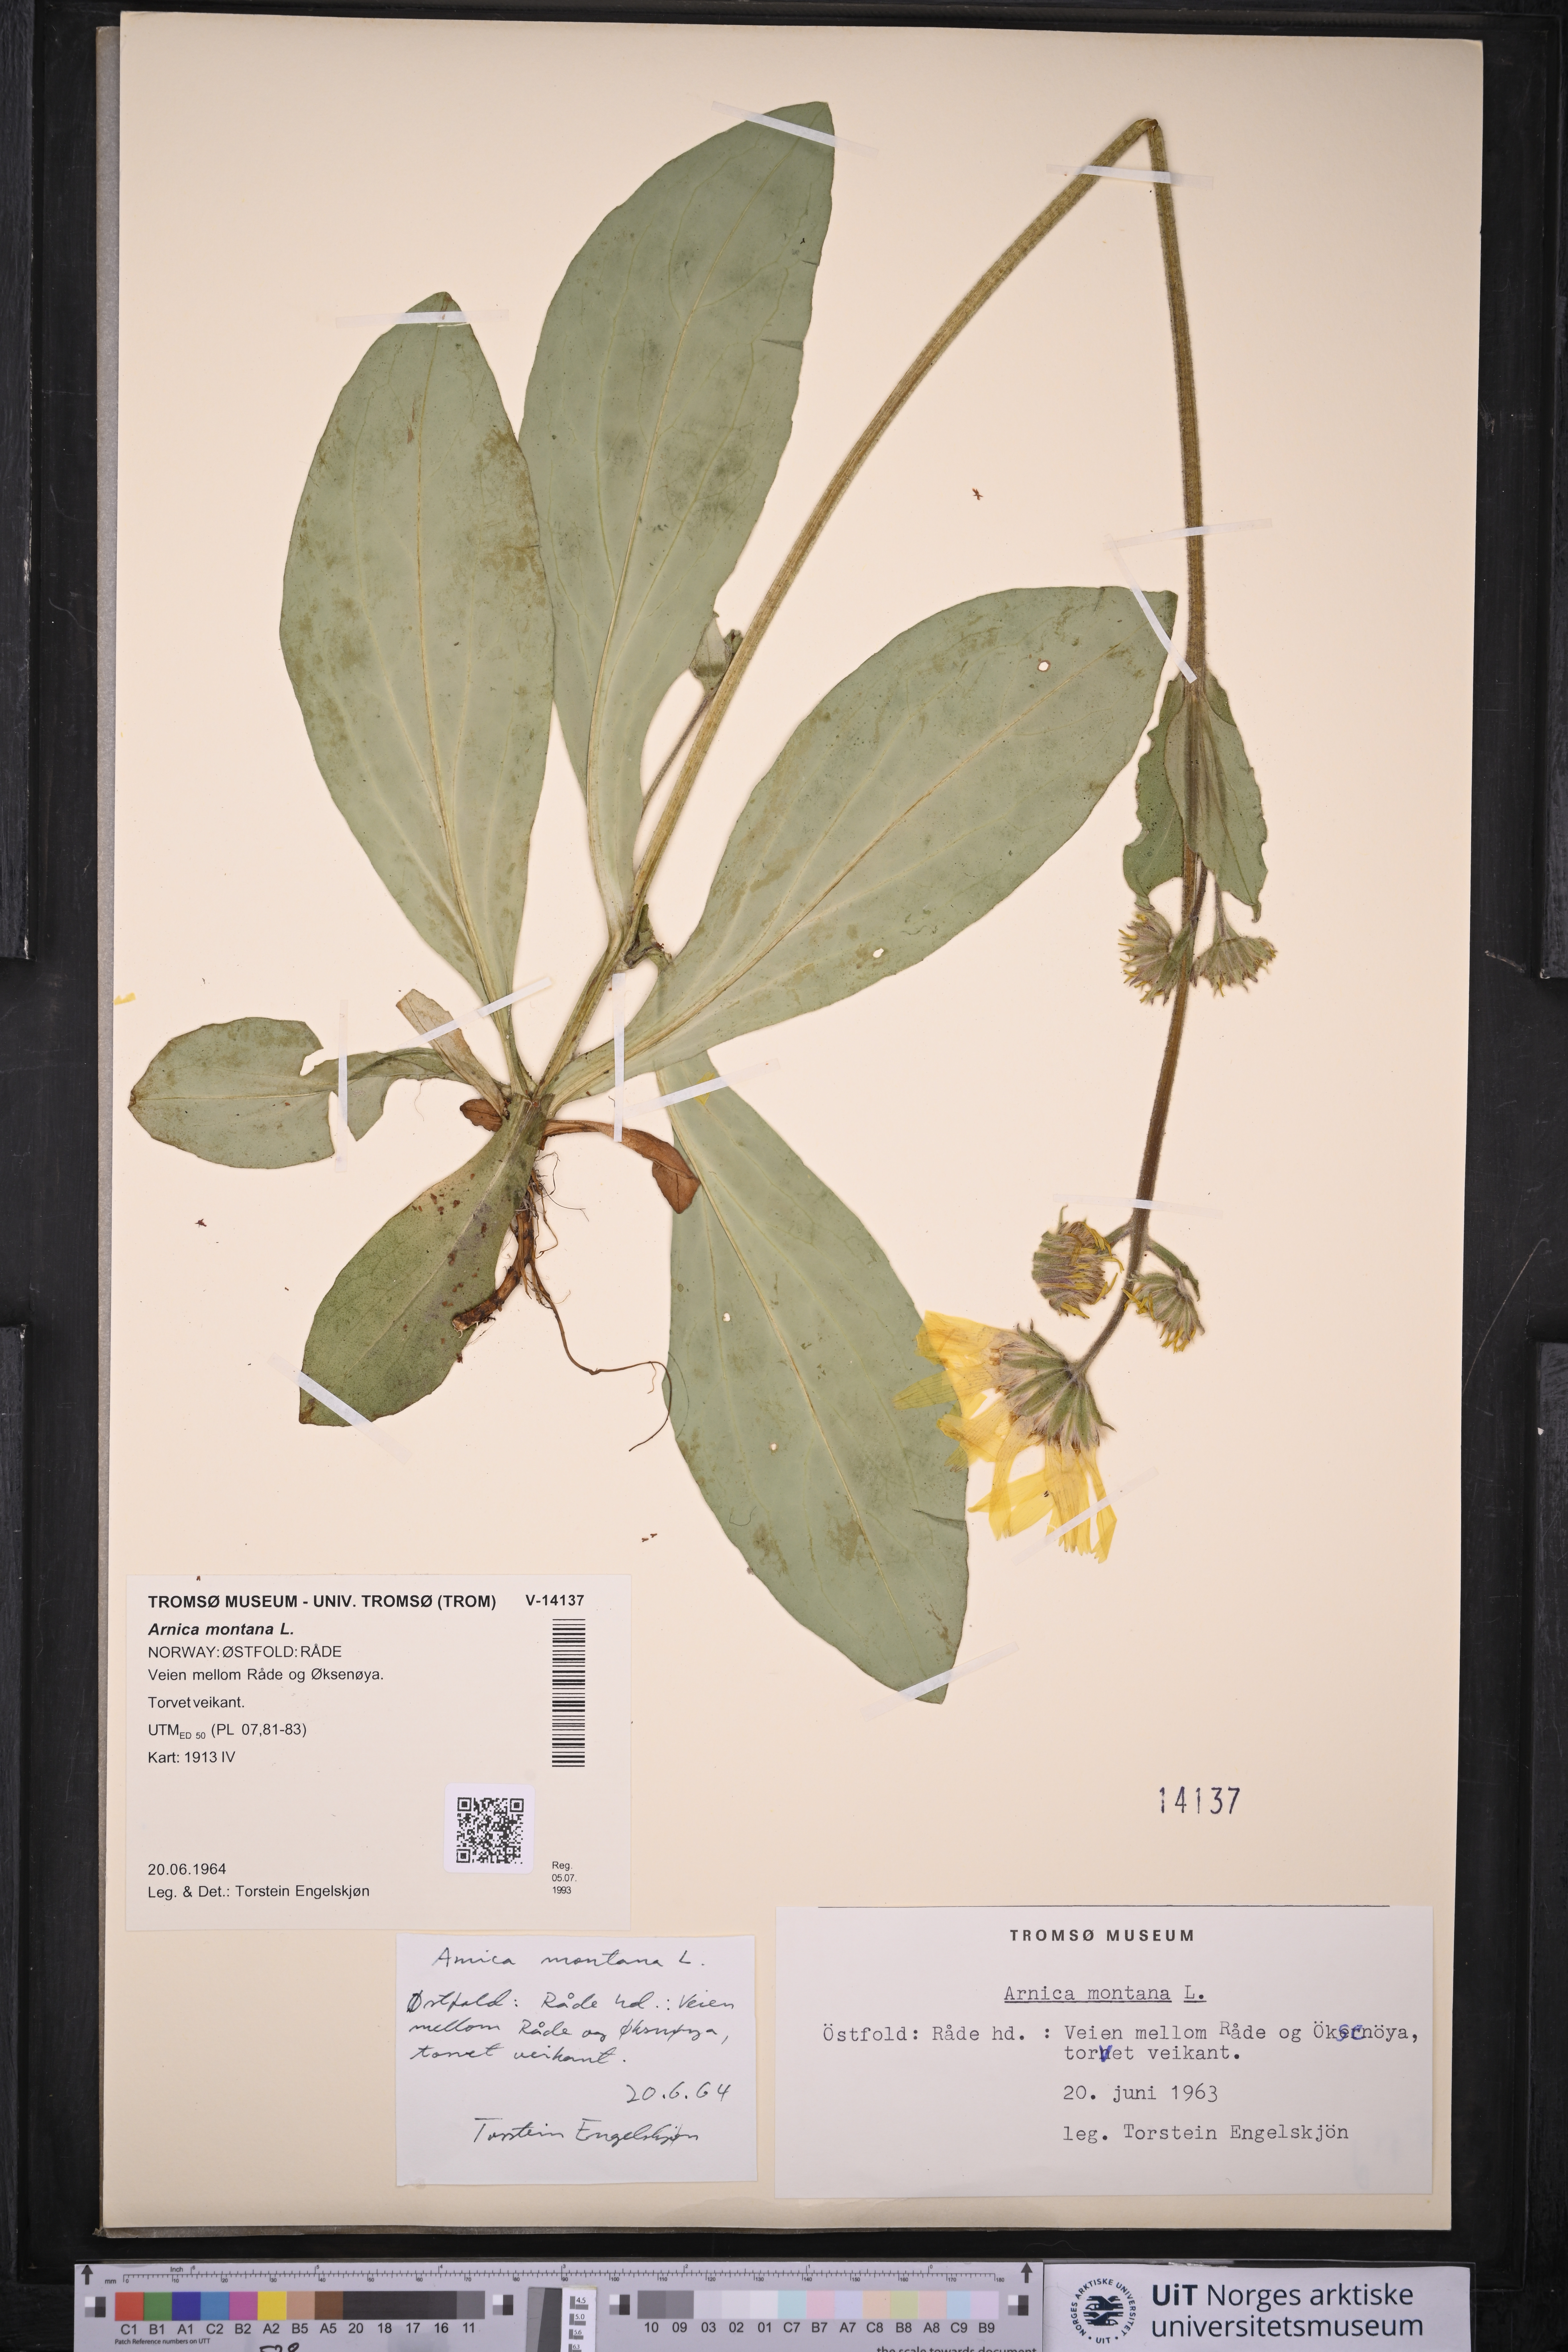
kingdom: Plantae
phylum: Tracheophyta
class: Magnoliopsida
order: Asterales
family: Asteraceae
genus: Arnica
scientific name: Arnica montana
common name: Leopard's bane
